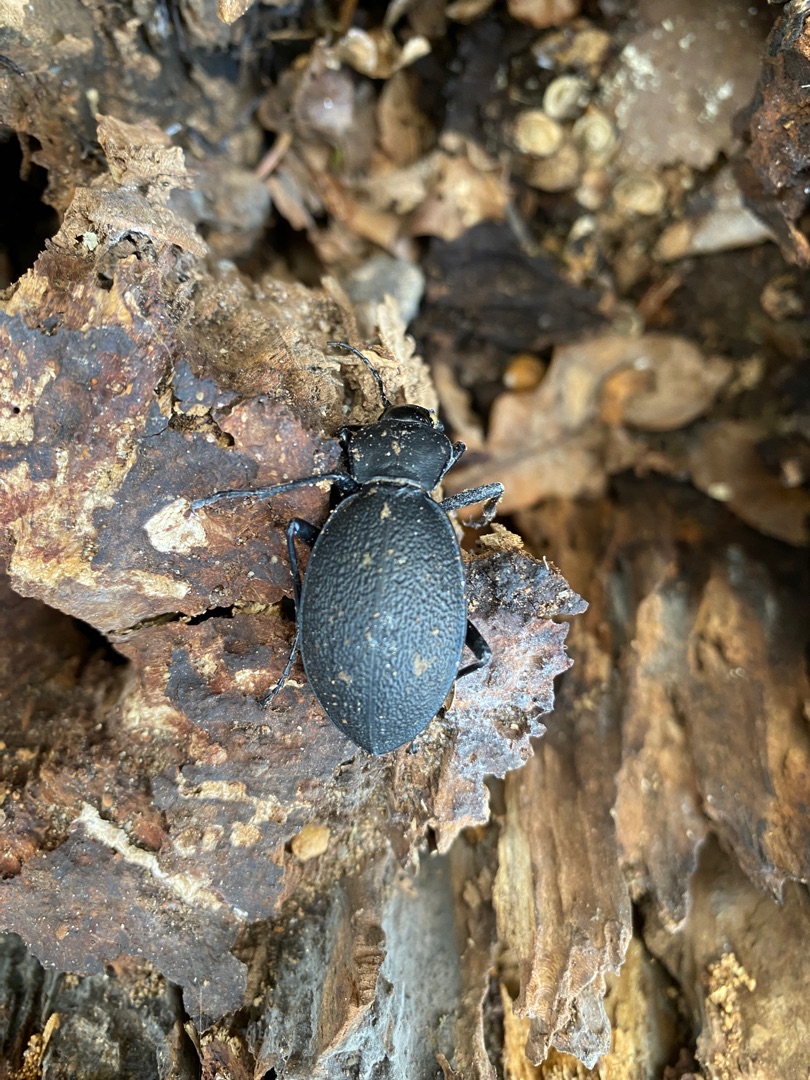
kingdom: Animalia
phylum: Arthropoda
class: Insecta
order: Coleoptera
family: Carabidae
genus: Carabus
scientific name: Carabus coriaceus
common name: Læderløber
